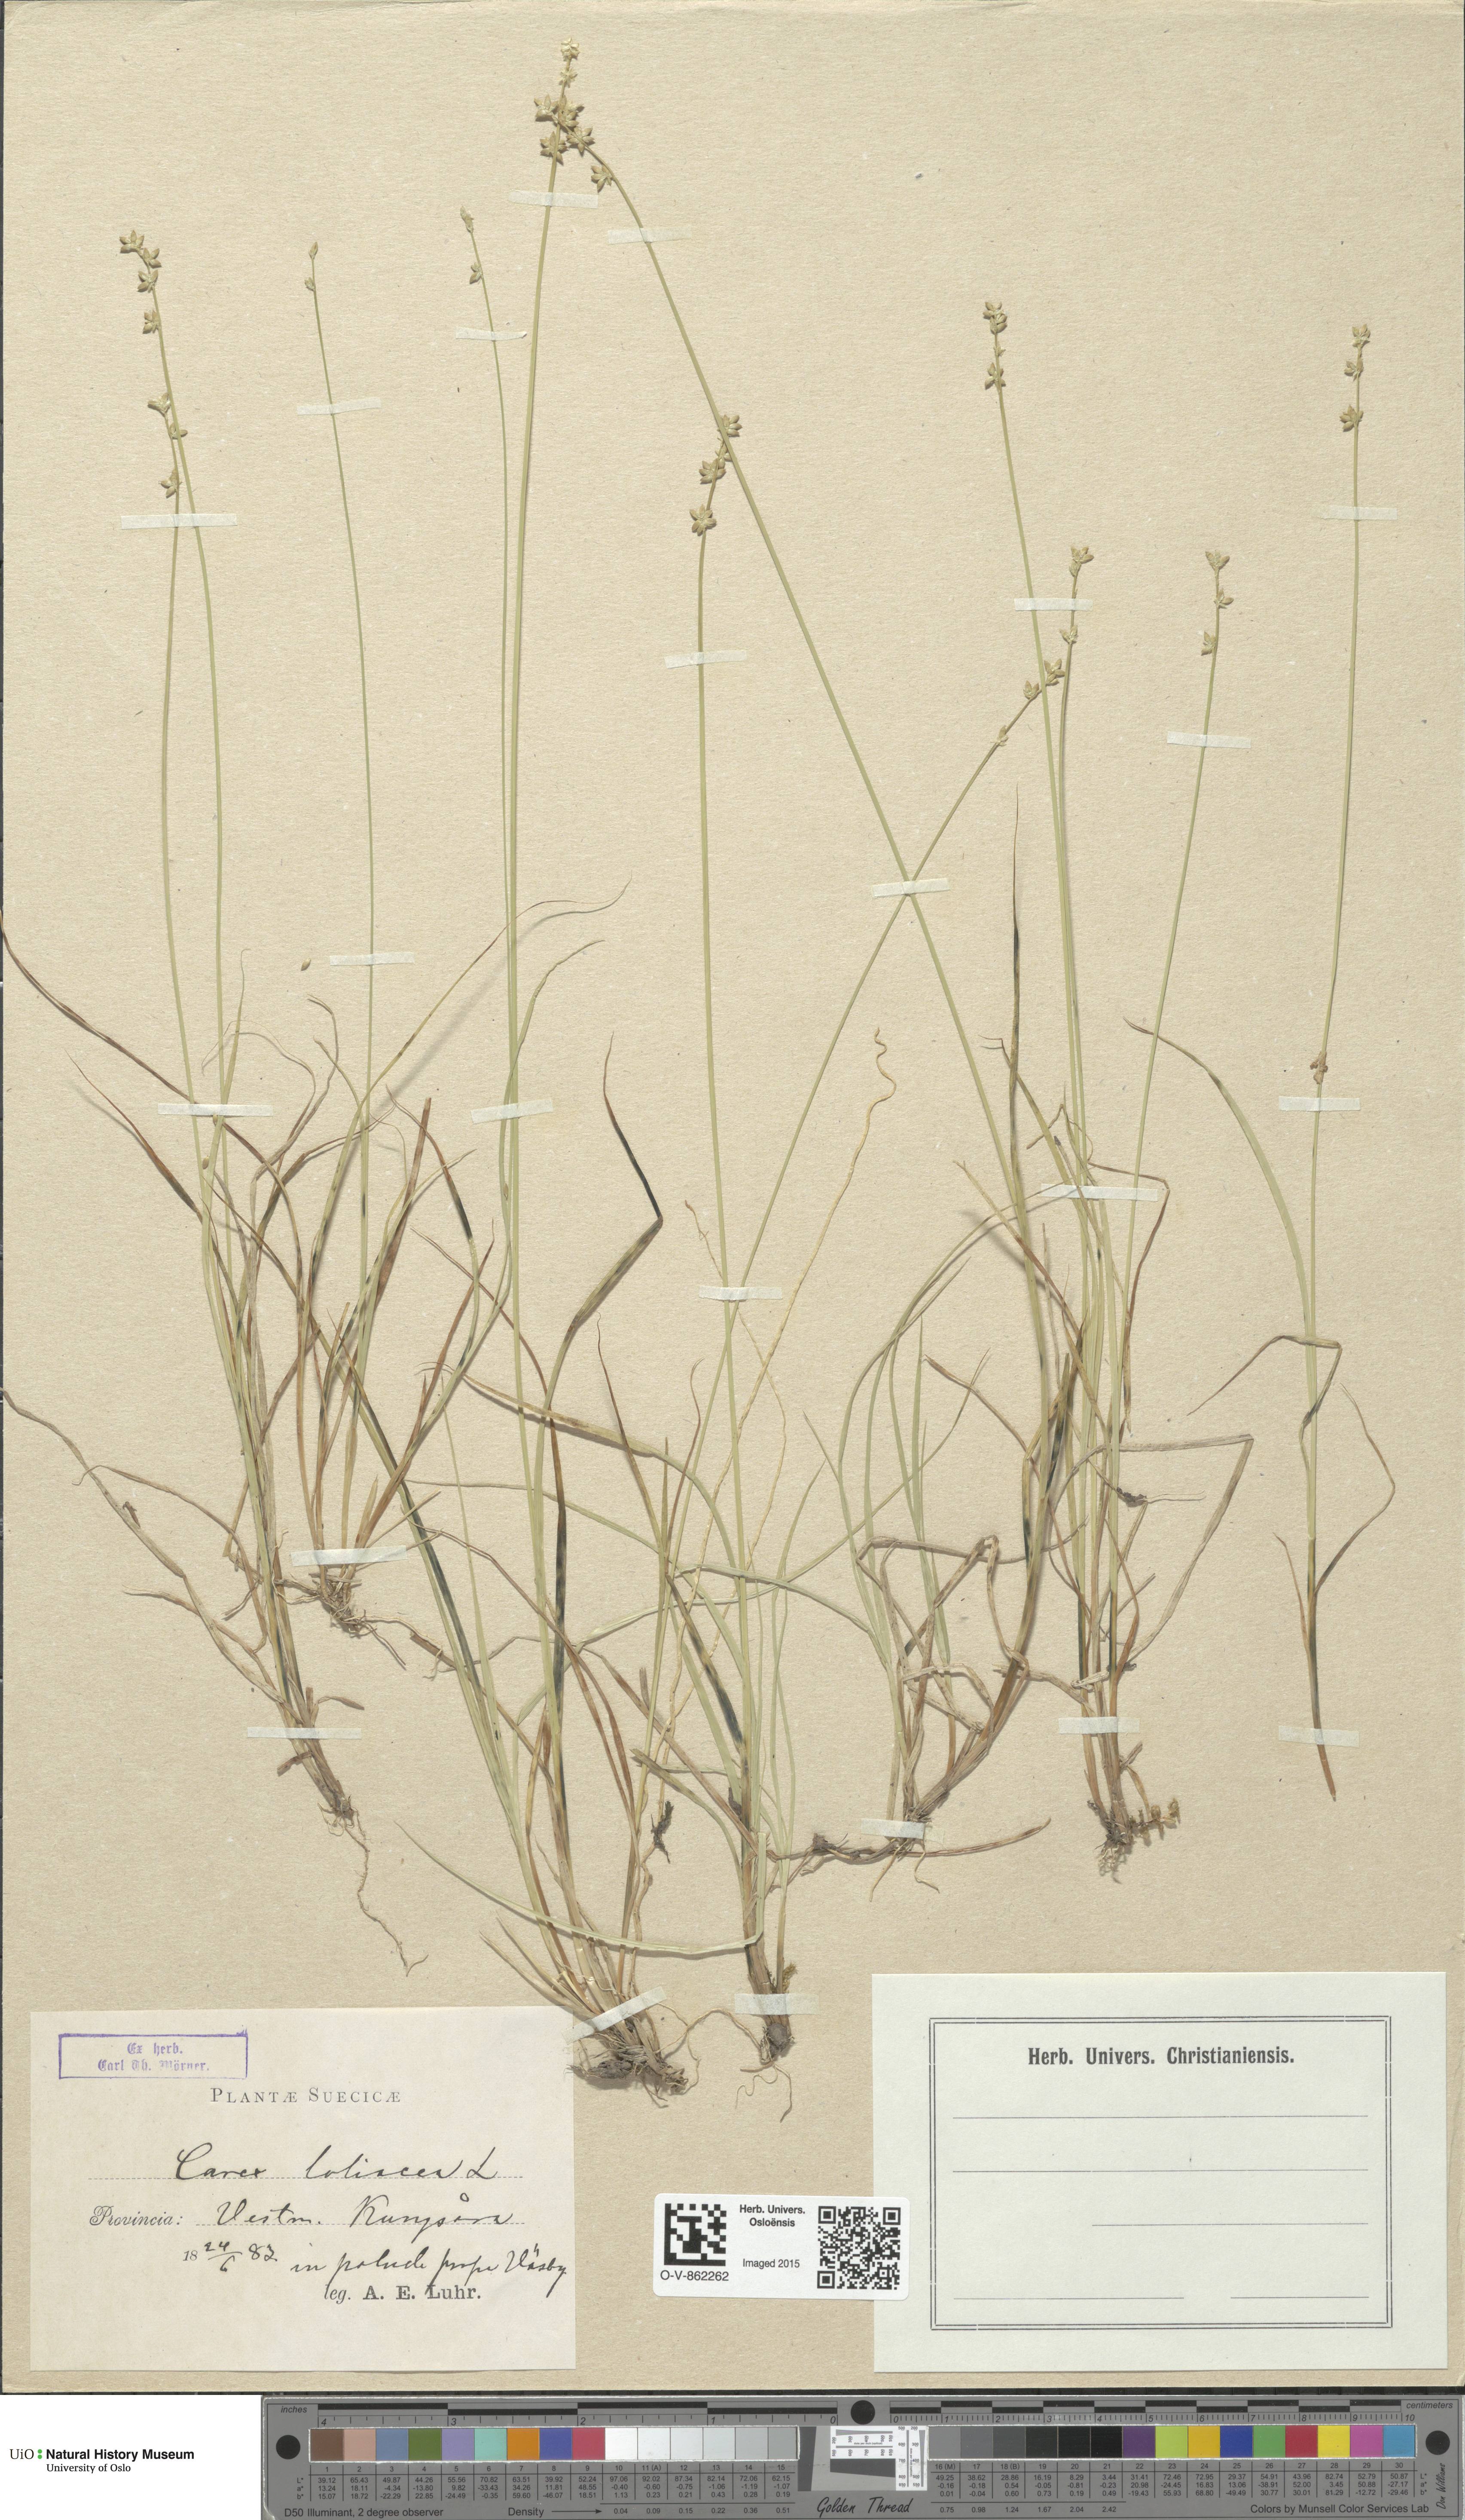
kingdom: Plantae
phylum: Tracheophyta
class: Liliopsida
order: Poales
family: Cyperaceae
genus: Carex
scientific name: Carex loliacea
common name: Ryegrass sedge
